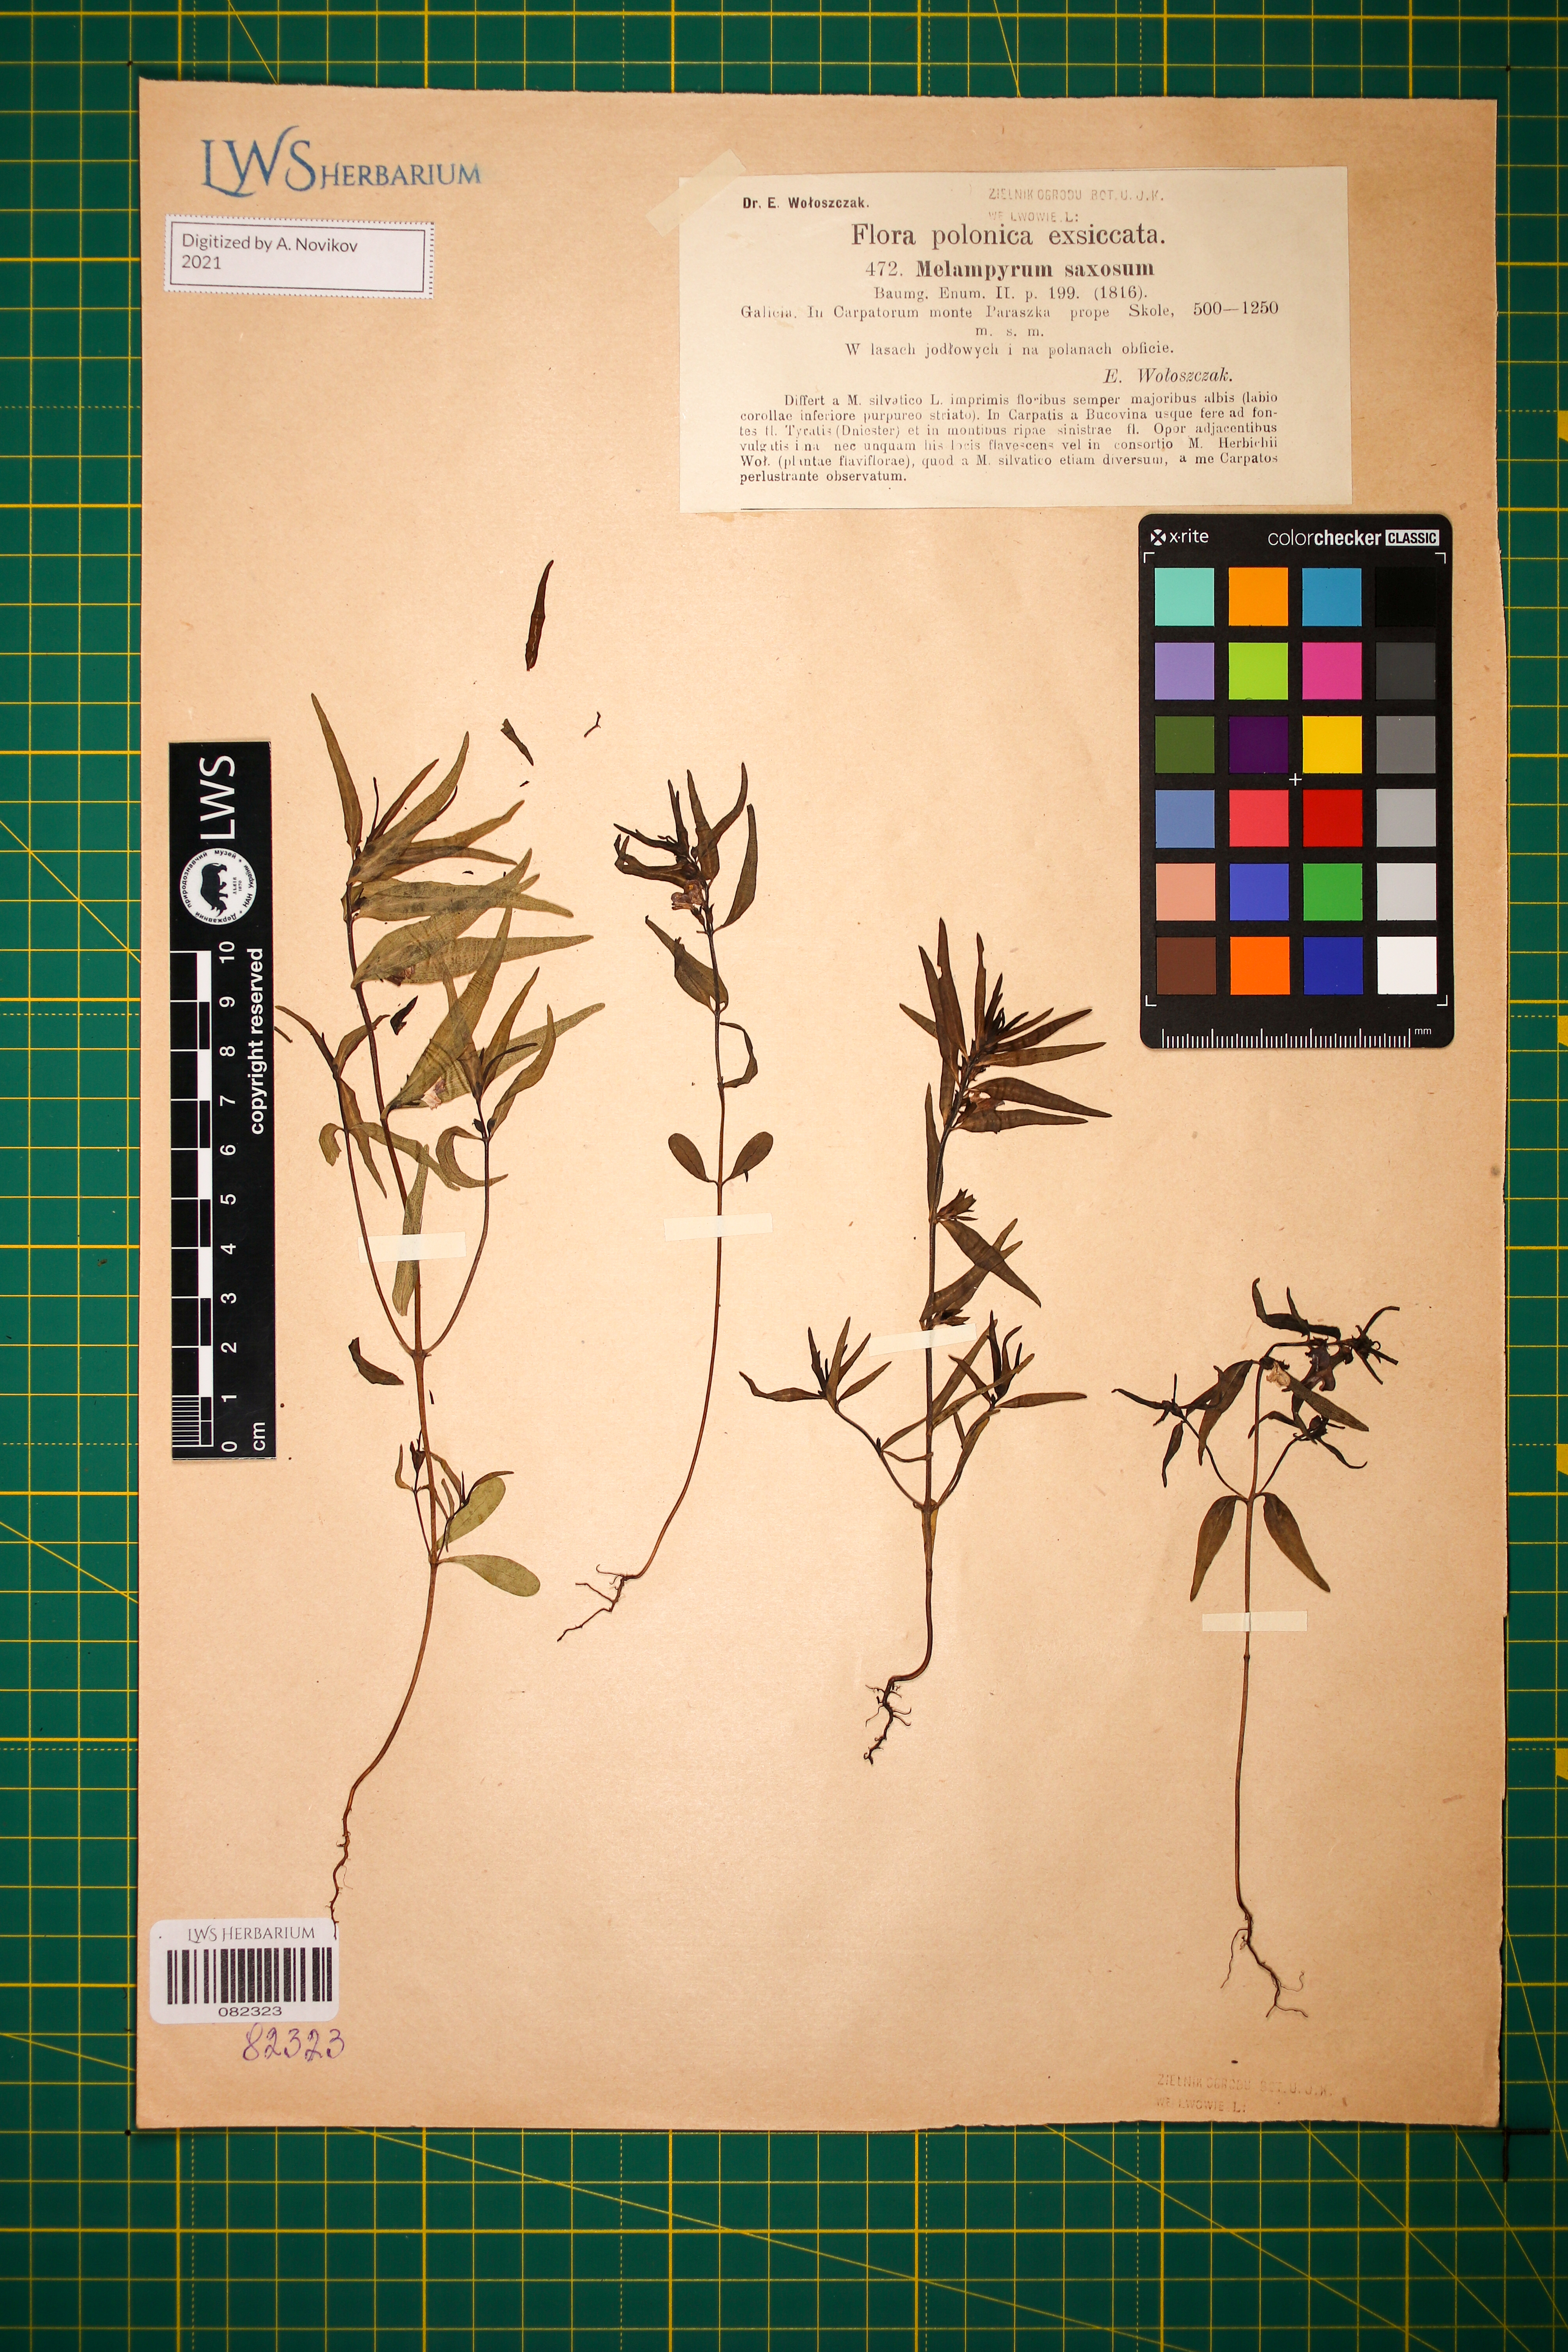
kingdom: Plantae
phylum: Tracheophyta
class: Magnoliopsida
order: Lamiales
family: Orobanchaceae
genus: Melampyrum
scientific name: Melampyrum saxosum
